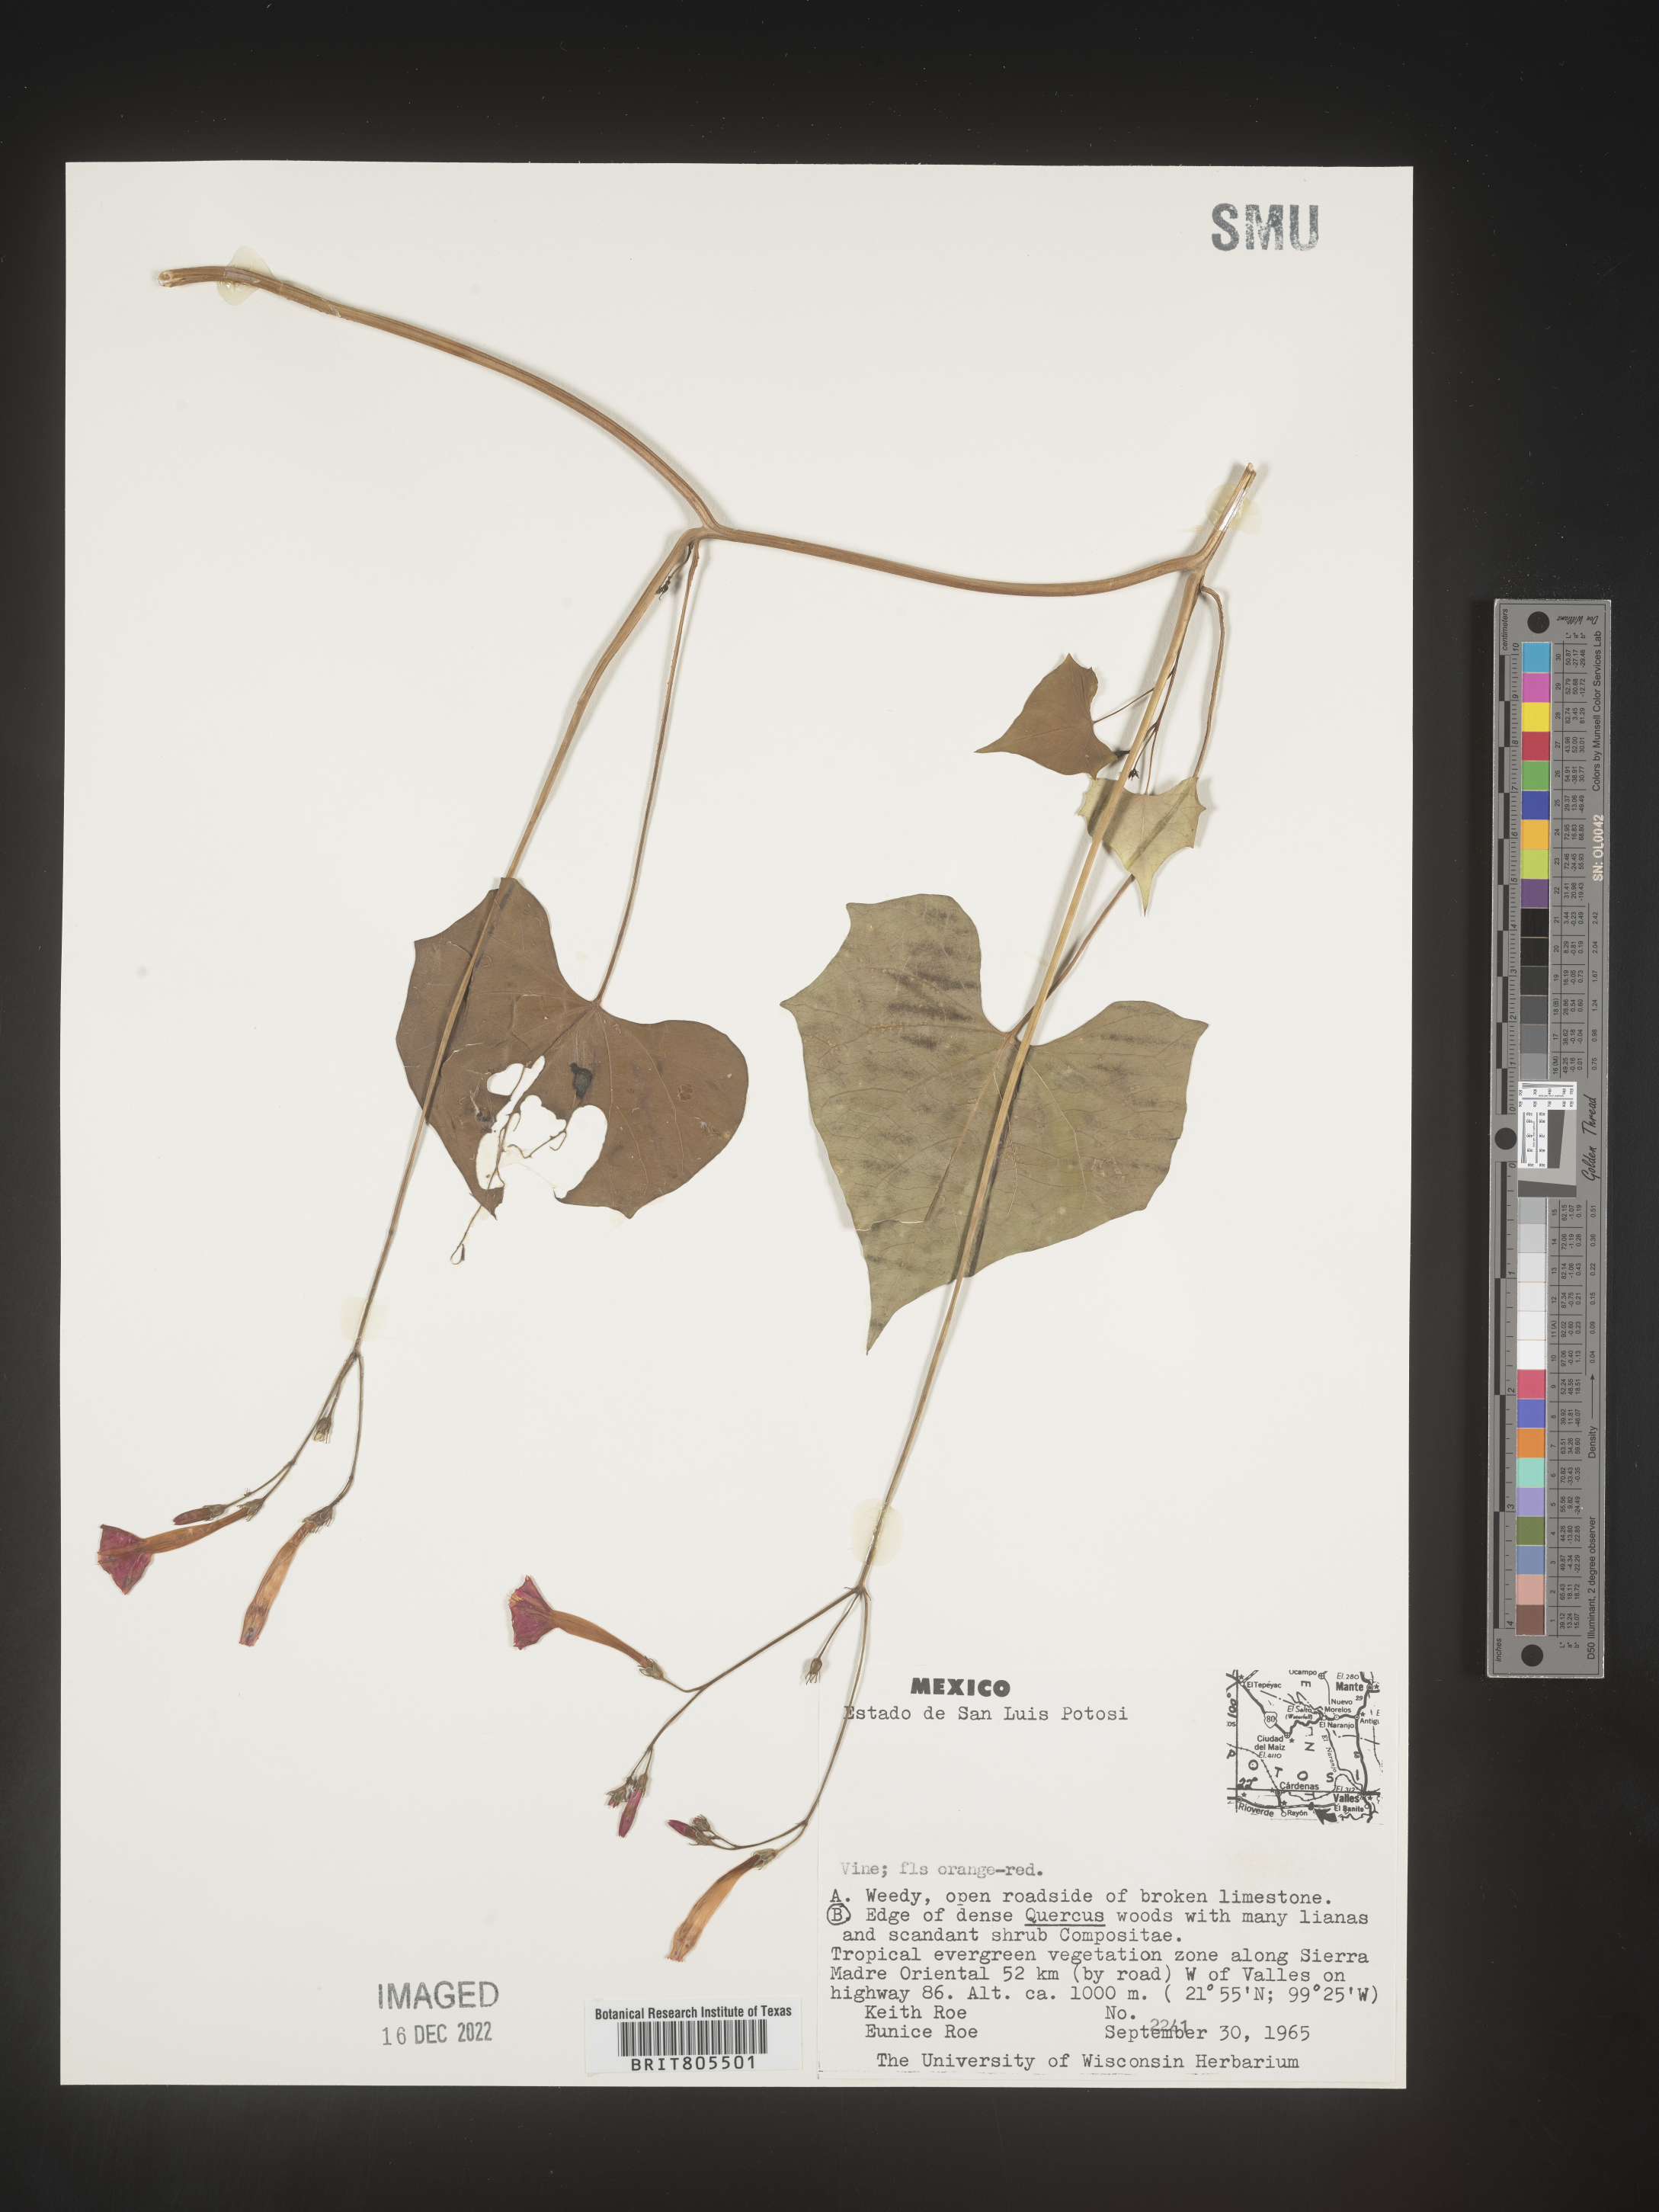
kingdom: Plantae
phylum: Tracheophyta
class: Magnoliopsida
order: Solanales
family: Convolvulaceae
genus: Ipomoea
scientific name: Ipomoea
